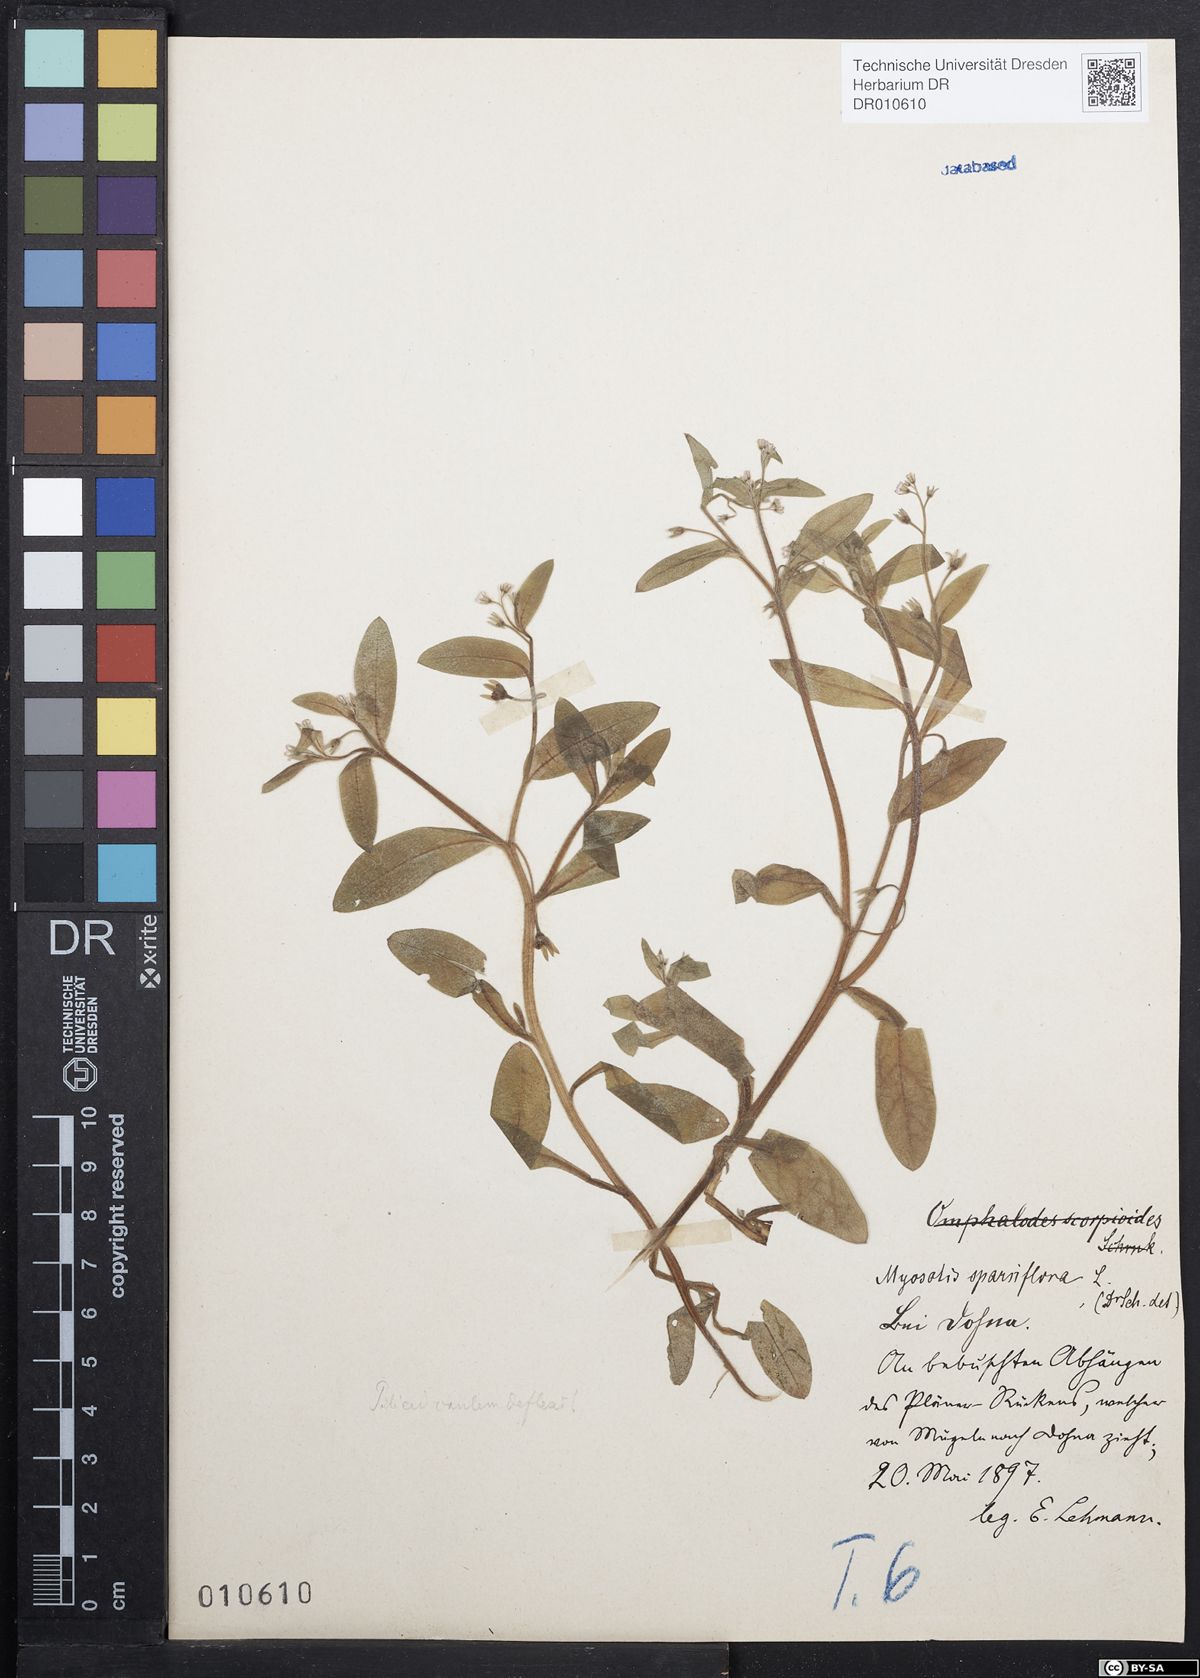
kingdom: Plantae
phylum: Tracheophyta
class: Magnoliopsida
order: Boraginales
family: Boraginaceae
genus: Myosotis
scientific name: Myosotis sparsiflora
